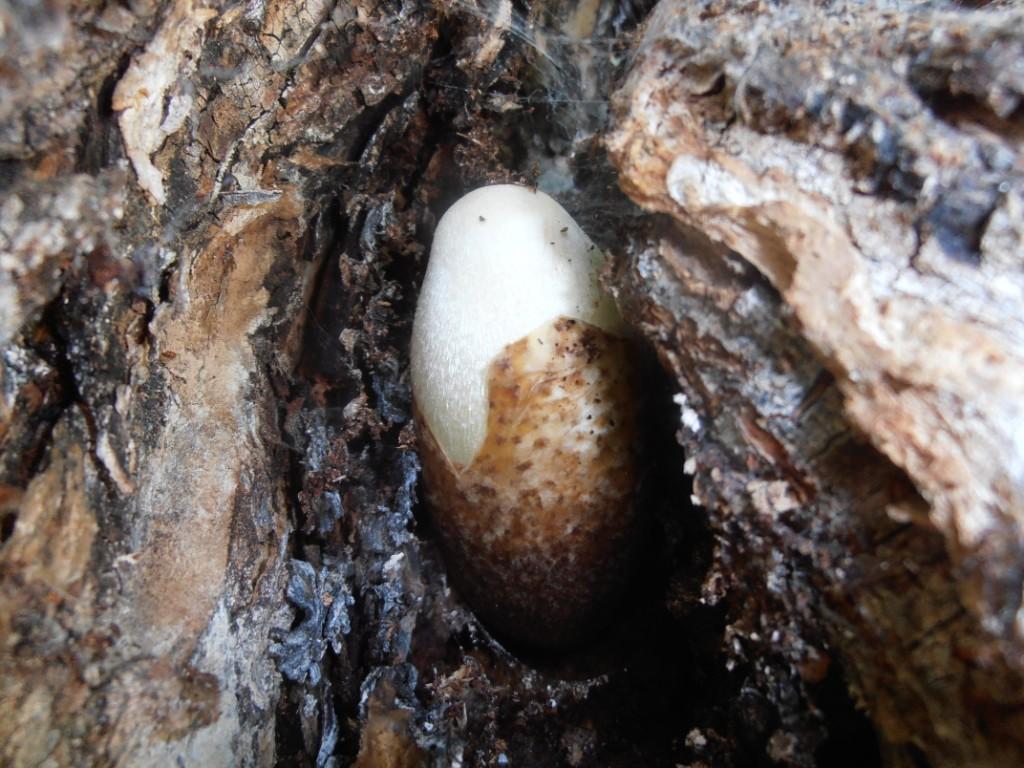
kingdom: Fungi
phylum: Basidiomycota
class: Agaricomycetes
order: Agaricales
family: Pluteaceae
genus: Volvariella
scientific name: Volvariella bombycina
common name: silkehåret posesvamp
